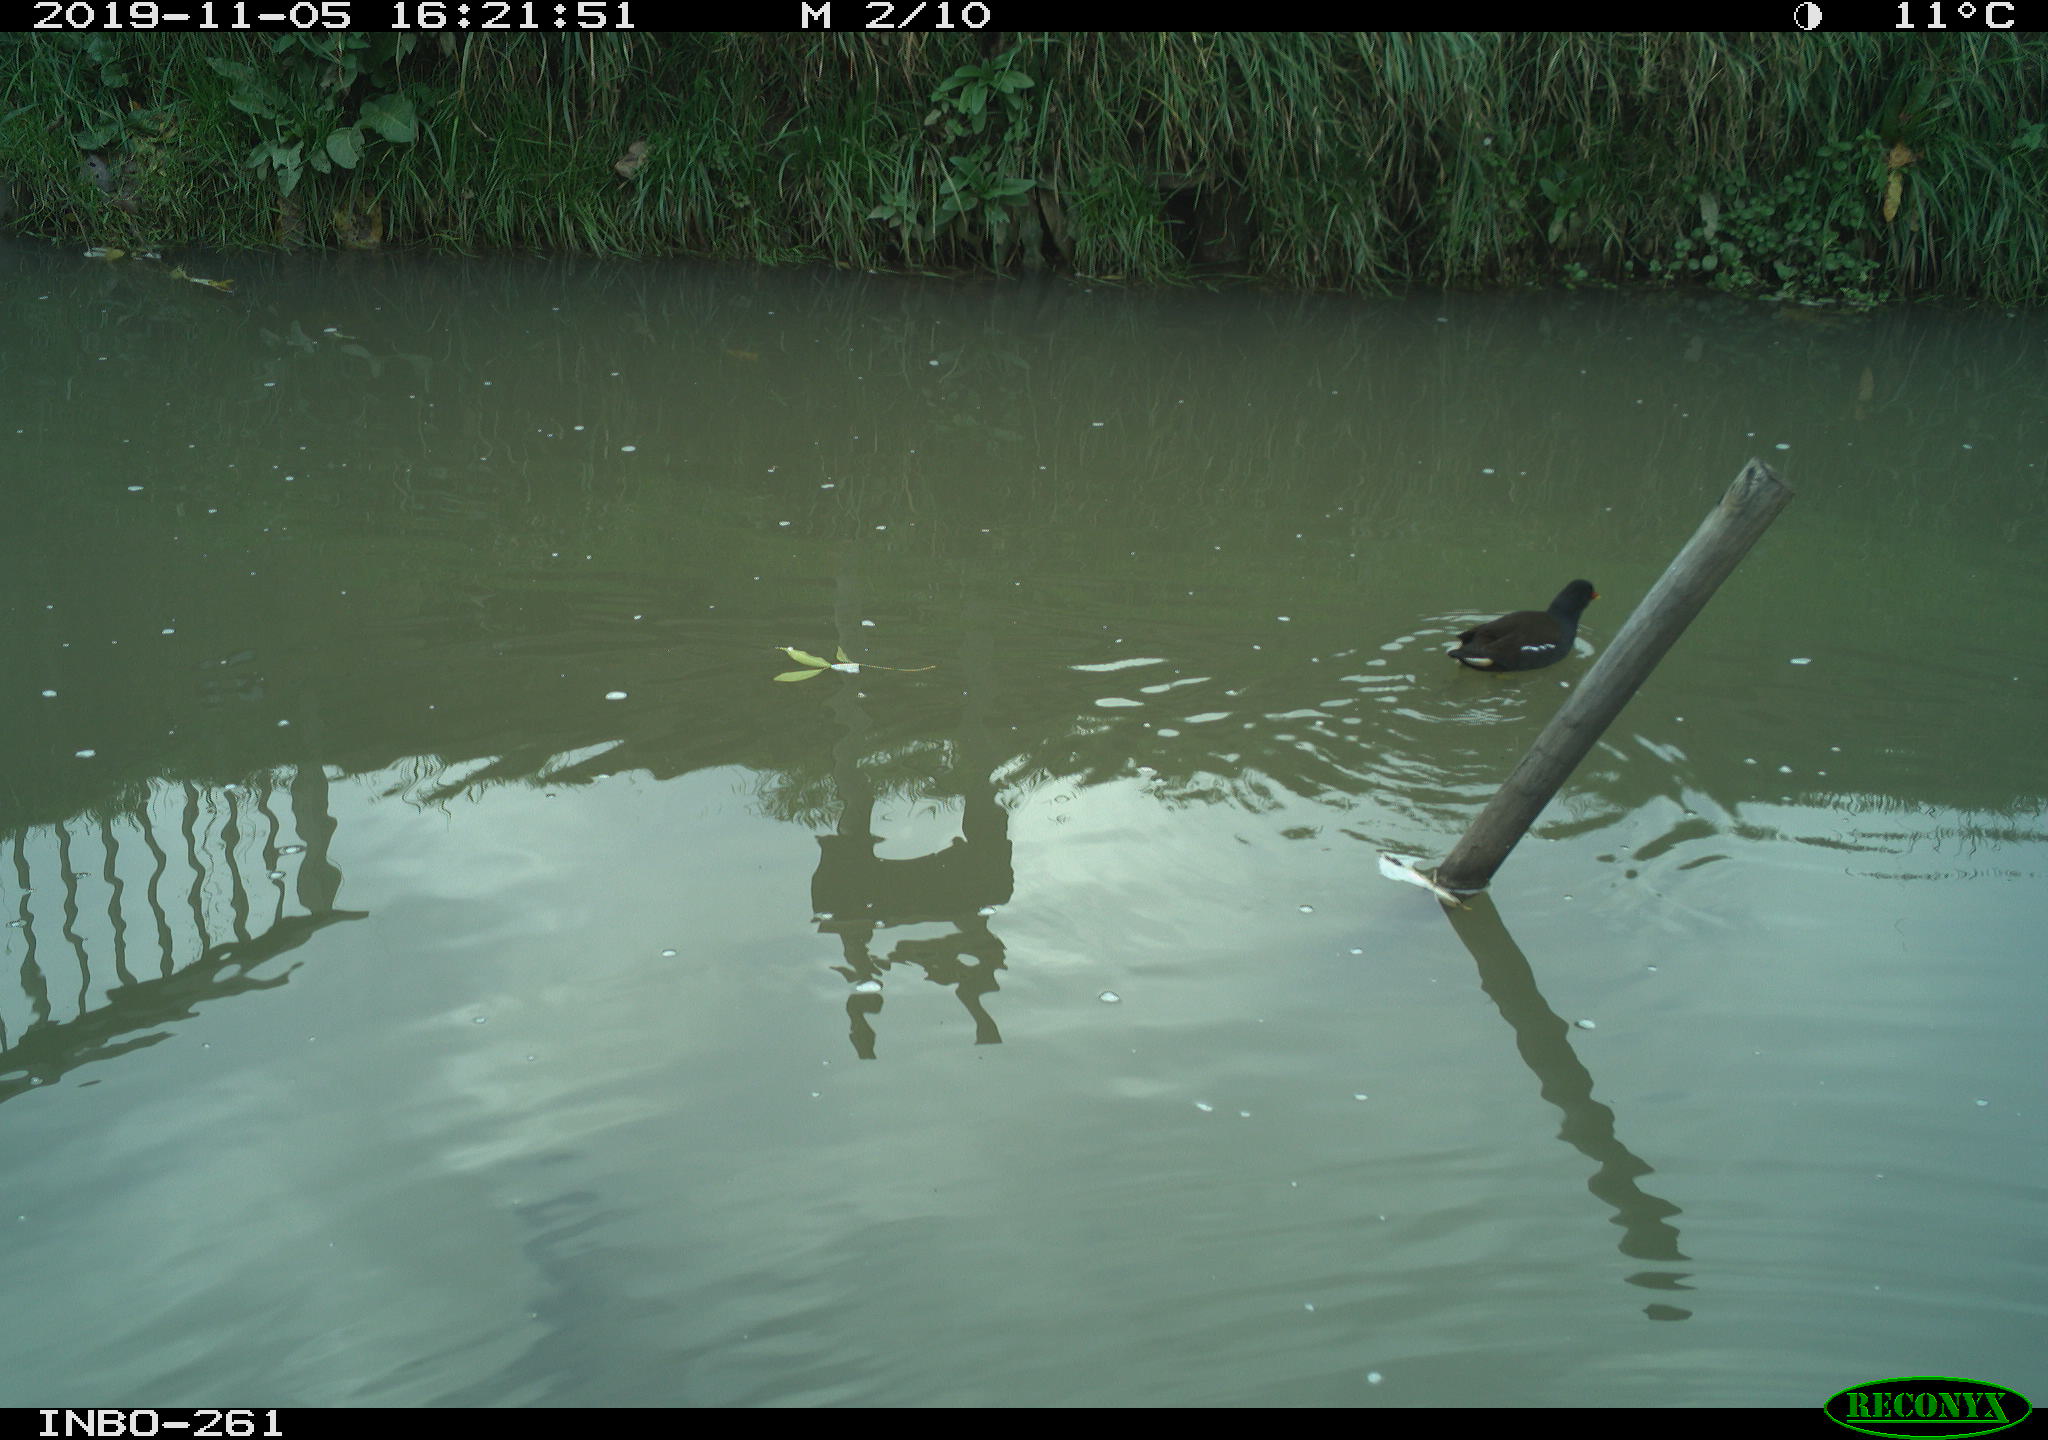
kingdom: Animalia
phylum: Chordata
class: Aves
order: Gruiformes
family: Rallidae
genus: Gallinula
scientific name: Gallinula chloropus
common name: Common moorhen
